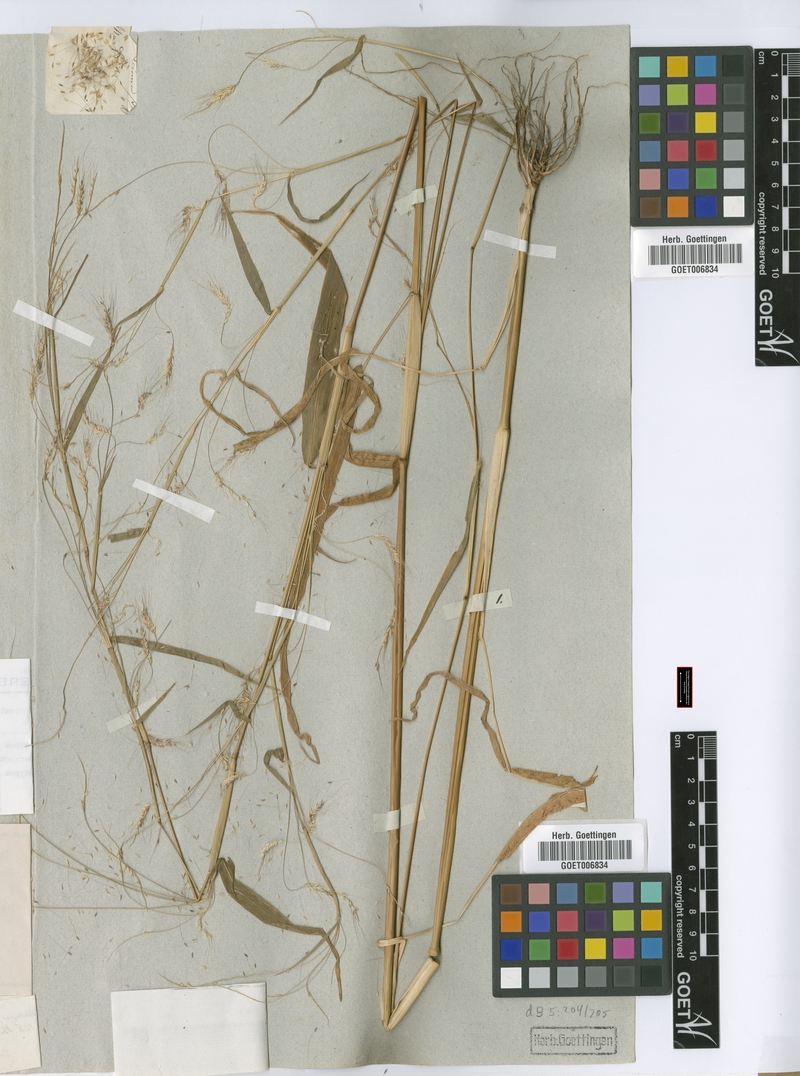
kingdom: Plantae
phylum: Tracheophyta
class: Liliopsida
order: Poales
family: Poaceae
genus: Cenchrus
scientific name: Cenchrus petiolaris
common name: Grass
